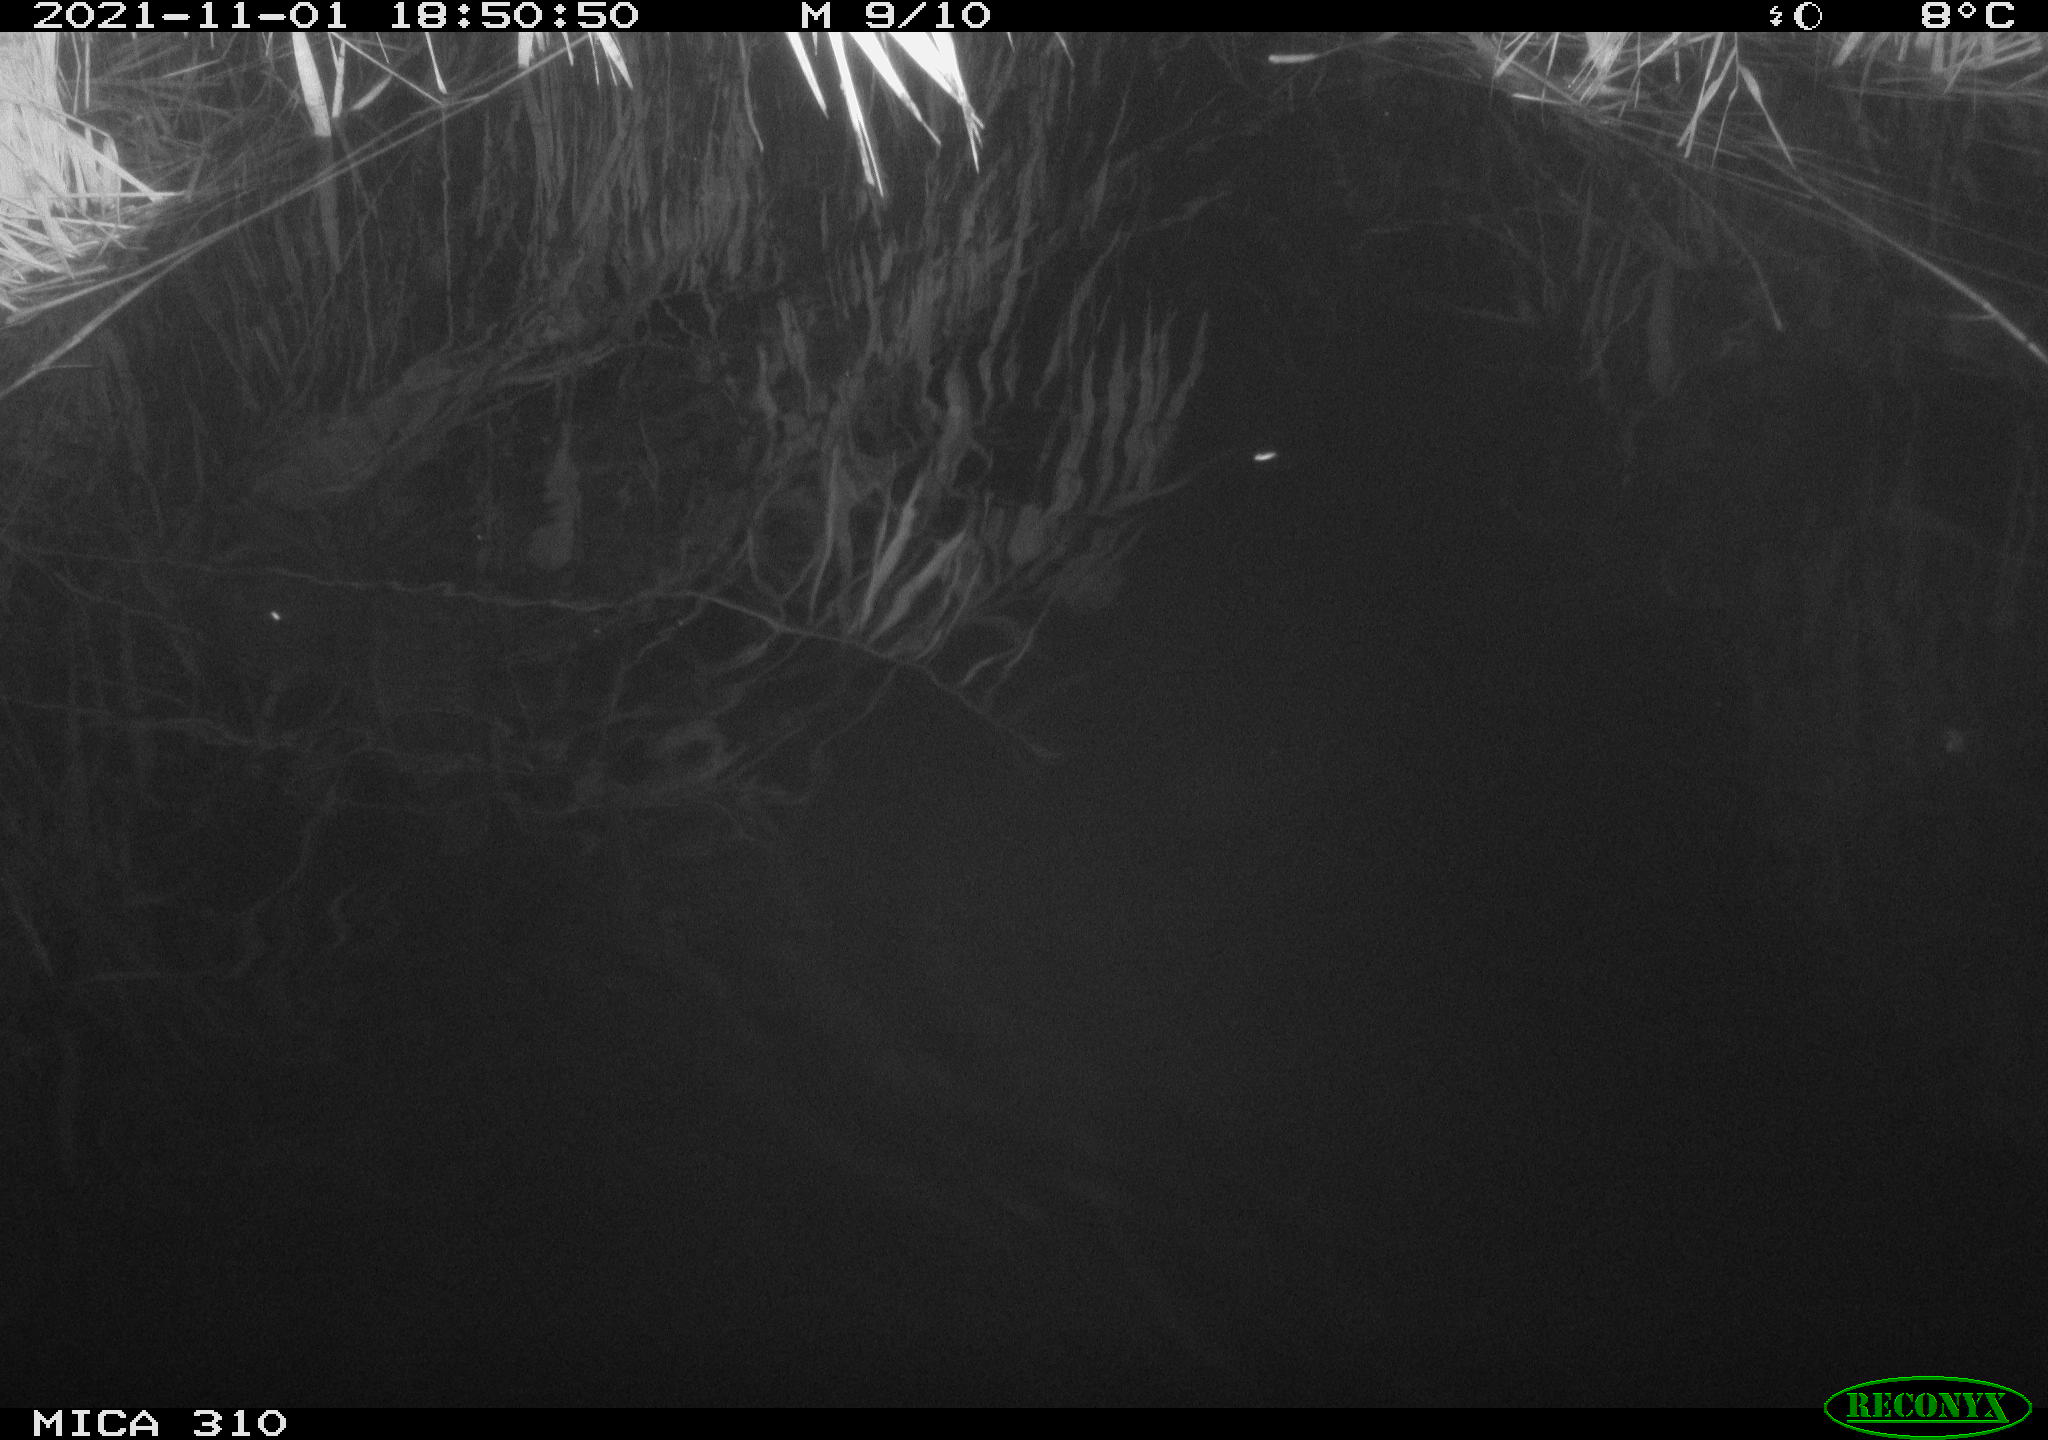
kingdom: Animalia
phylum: Chordata
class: Aves
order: Gruiformes
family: Rallidae
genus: Fulica
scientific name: Fulica atra
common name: Eurasian coot
